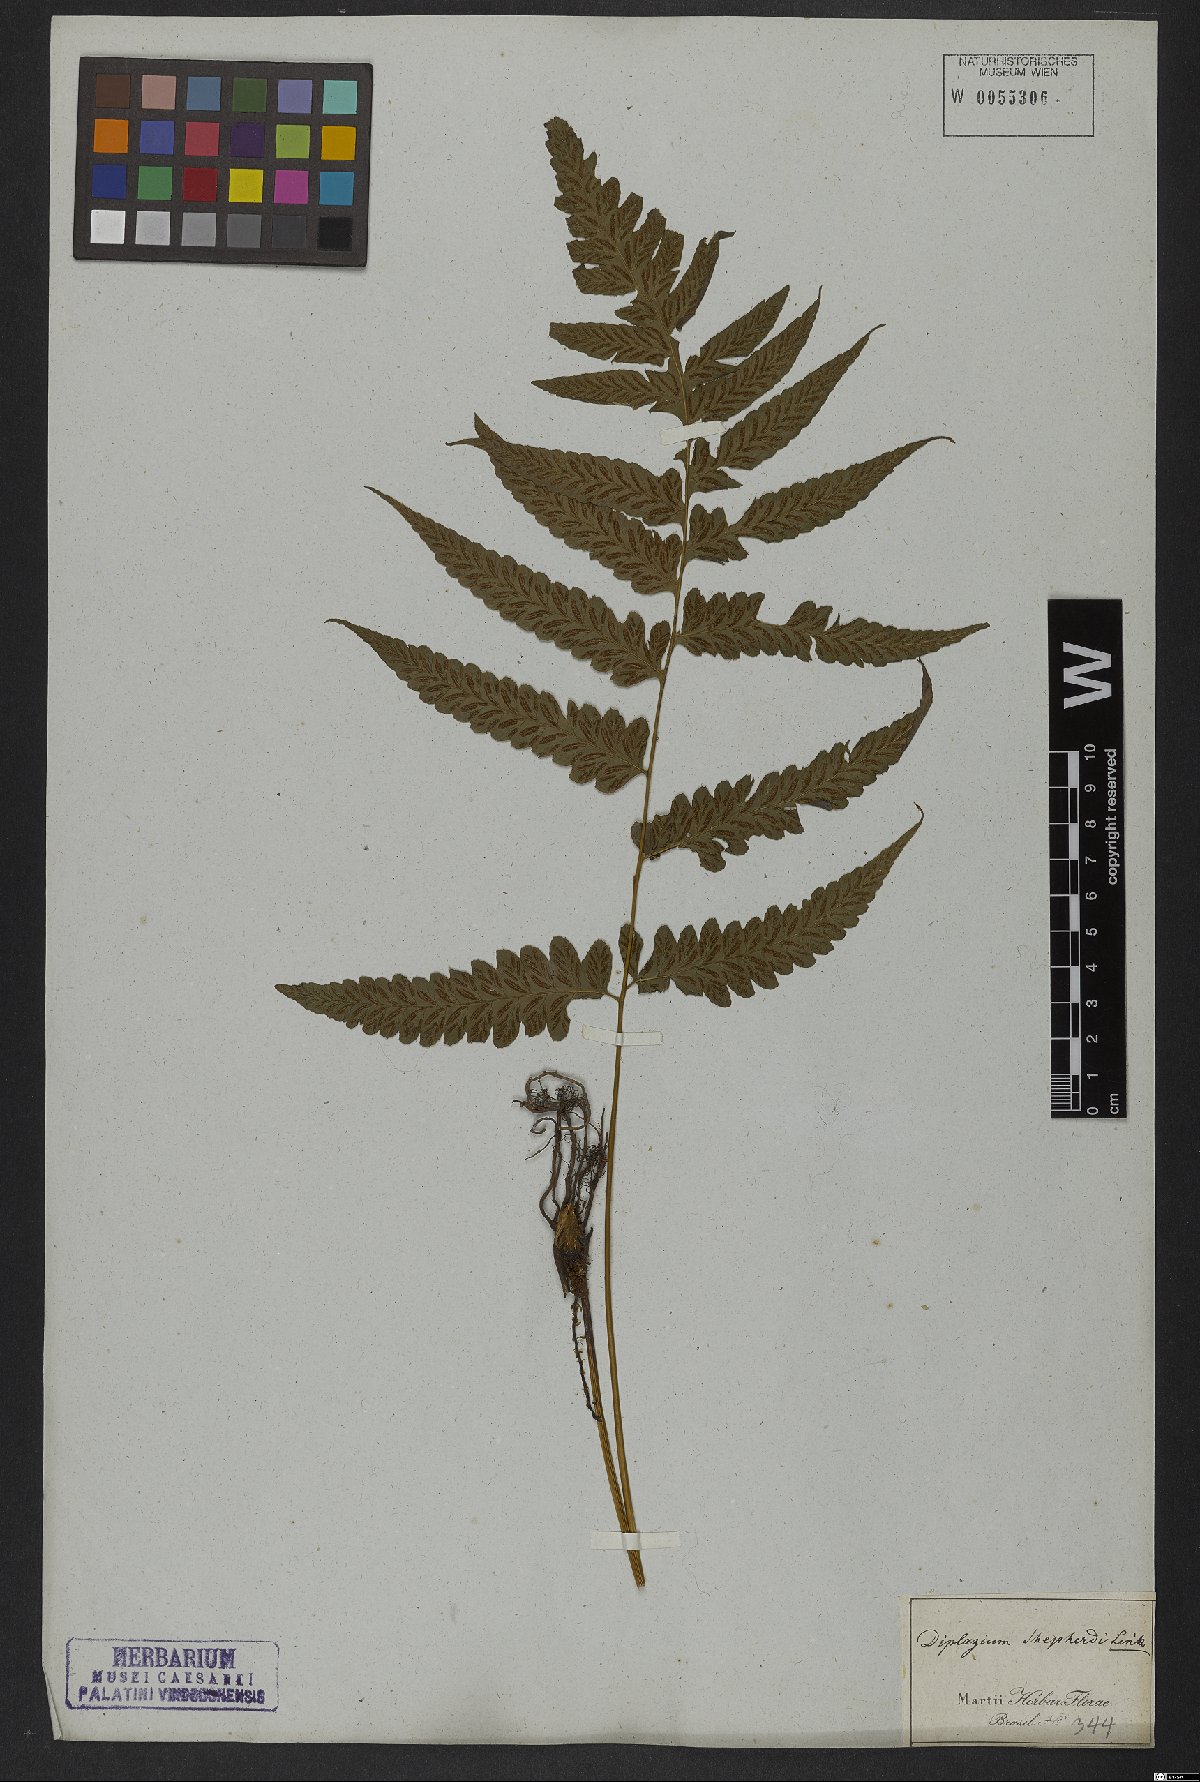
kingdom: Plantae
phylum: Tracheophyta
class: Polypodiopsida
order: Polypodiales
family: Athyriaceae
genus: Diplazium
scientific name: Diplazium cristatum
